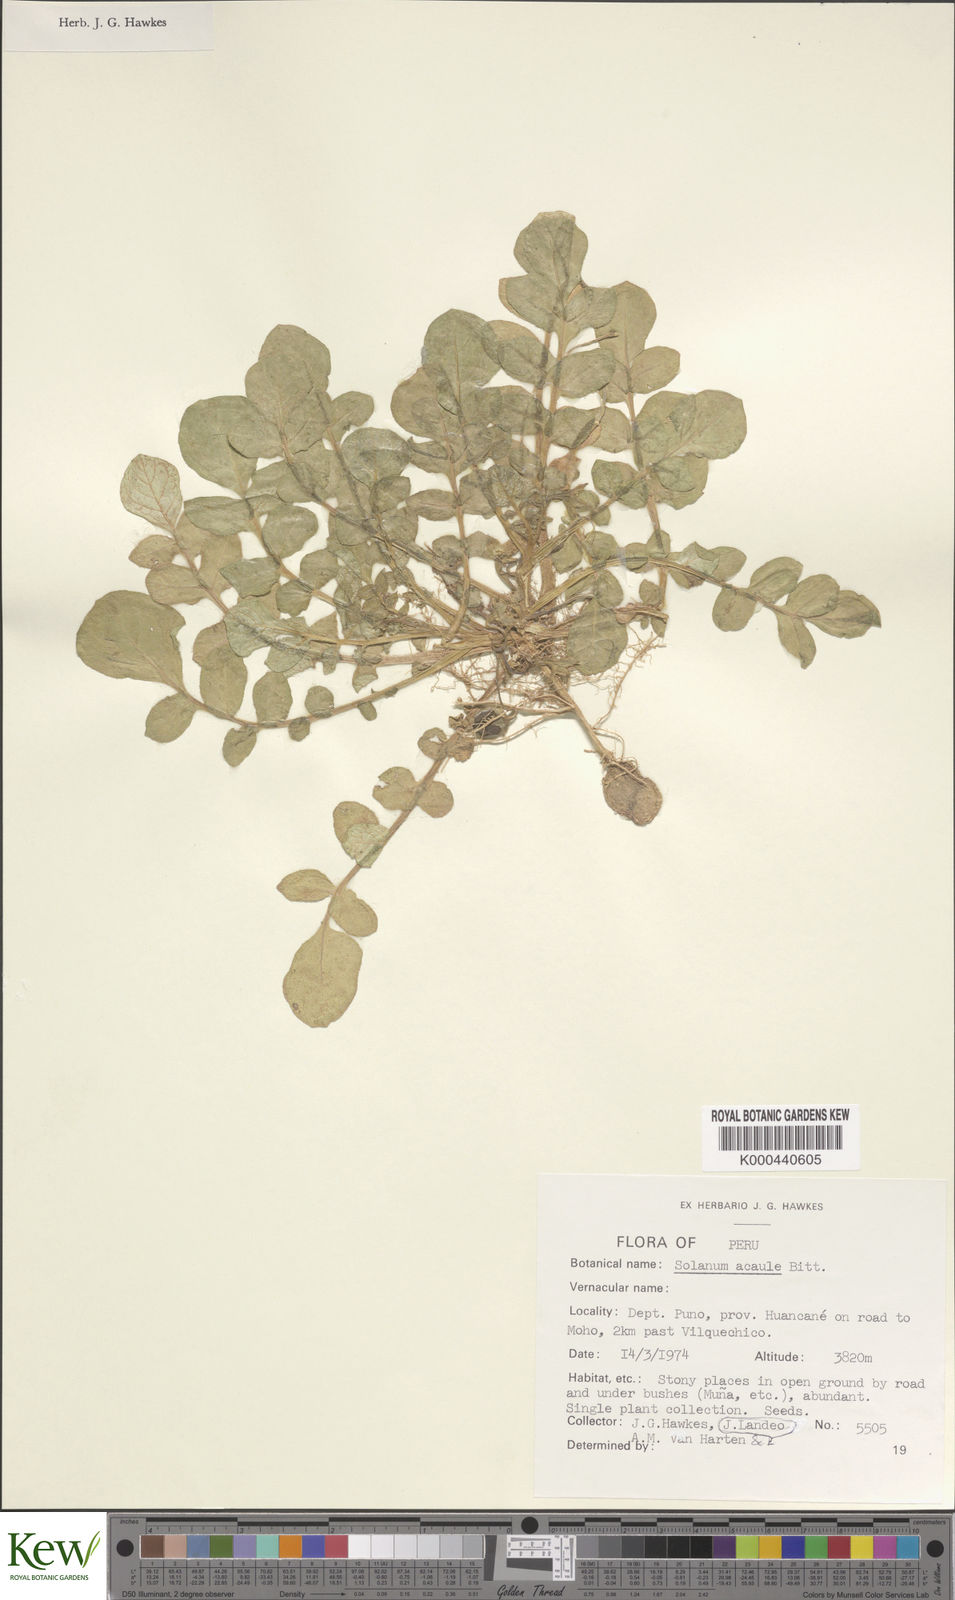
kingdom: Plantae
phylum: Tracheophyta
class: Magnoliopsida
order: Solanales
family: Solanaceae
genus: Solanum
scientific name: Solanum acaule
